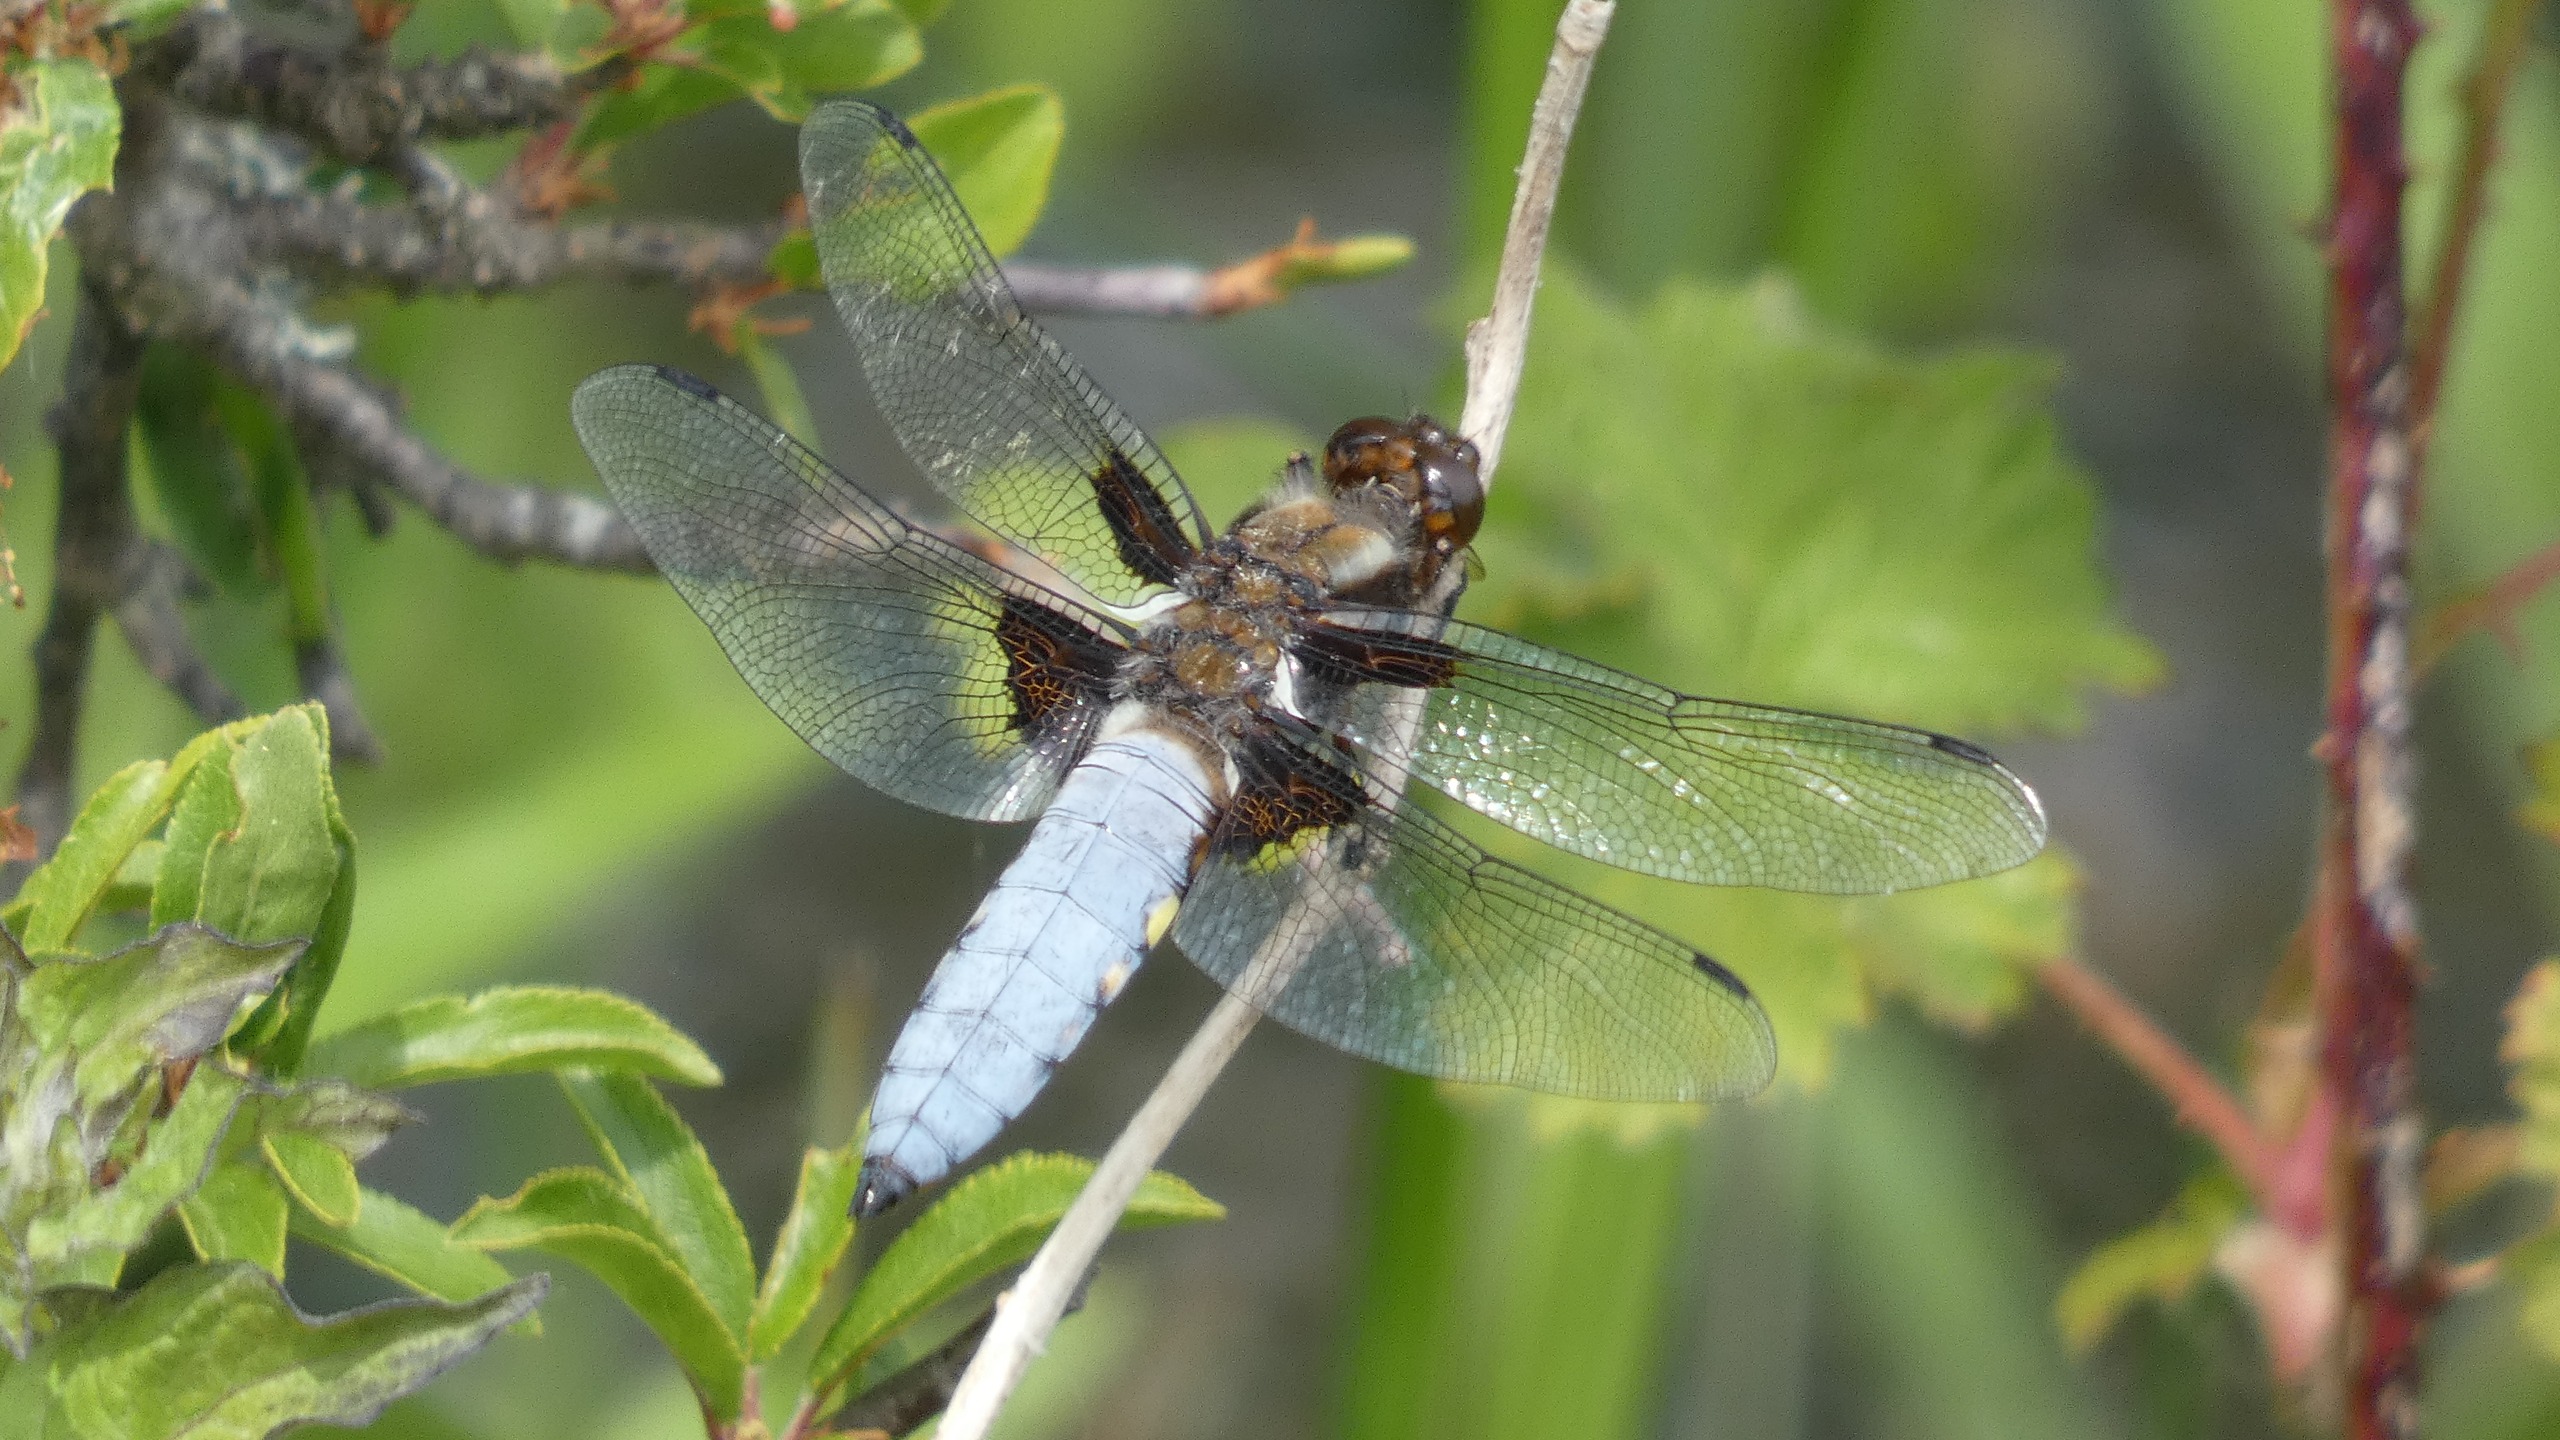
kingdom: Animalia
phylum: Arthropoda
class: Insecta
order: Odonata
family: Libellulidae
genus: Libellula
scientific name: Libellula depressa
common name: Blå libel
